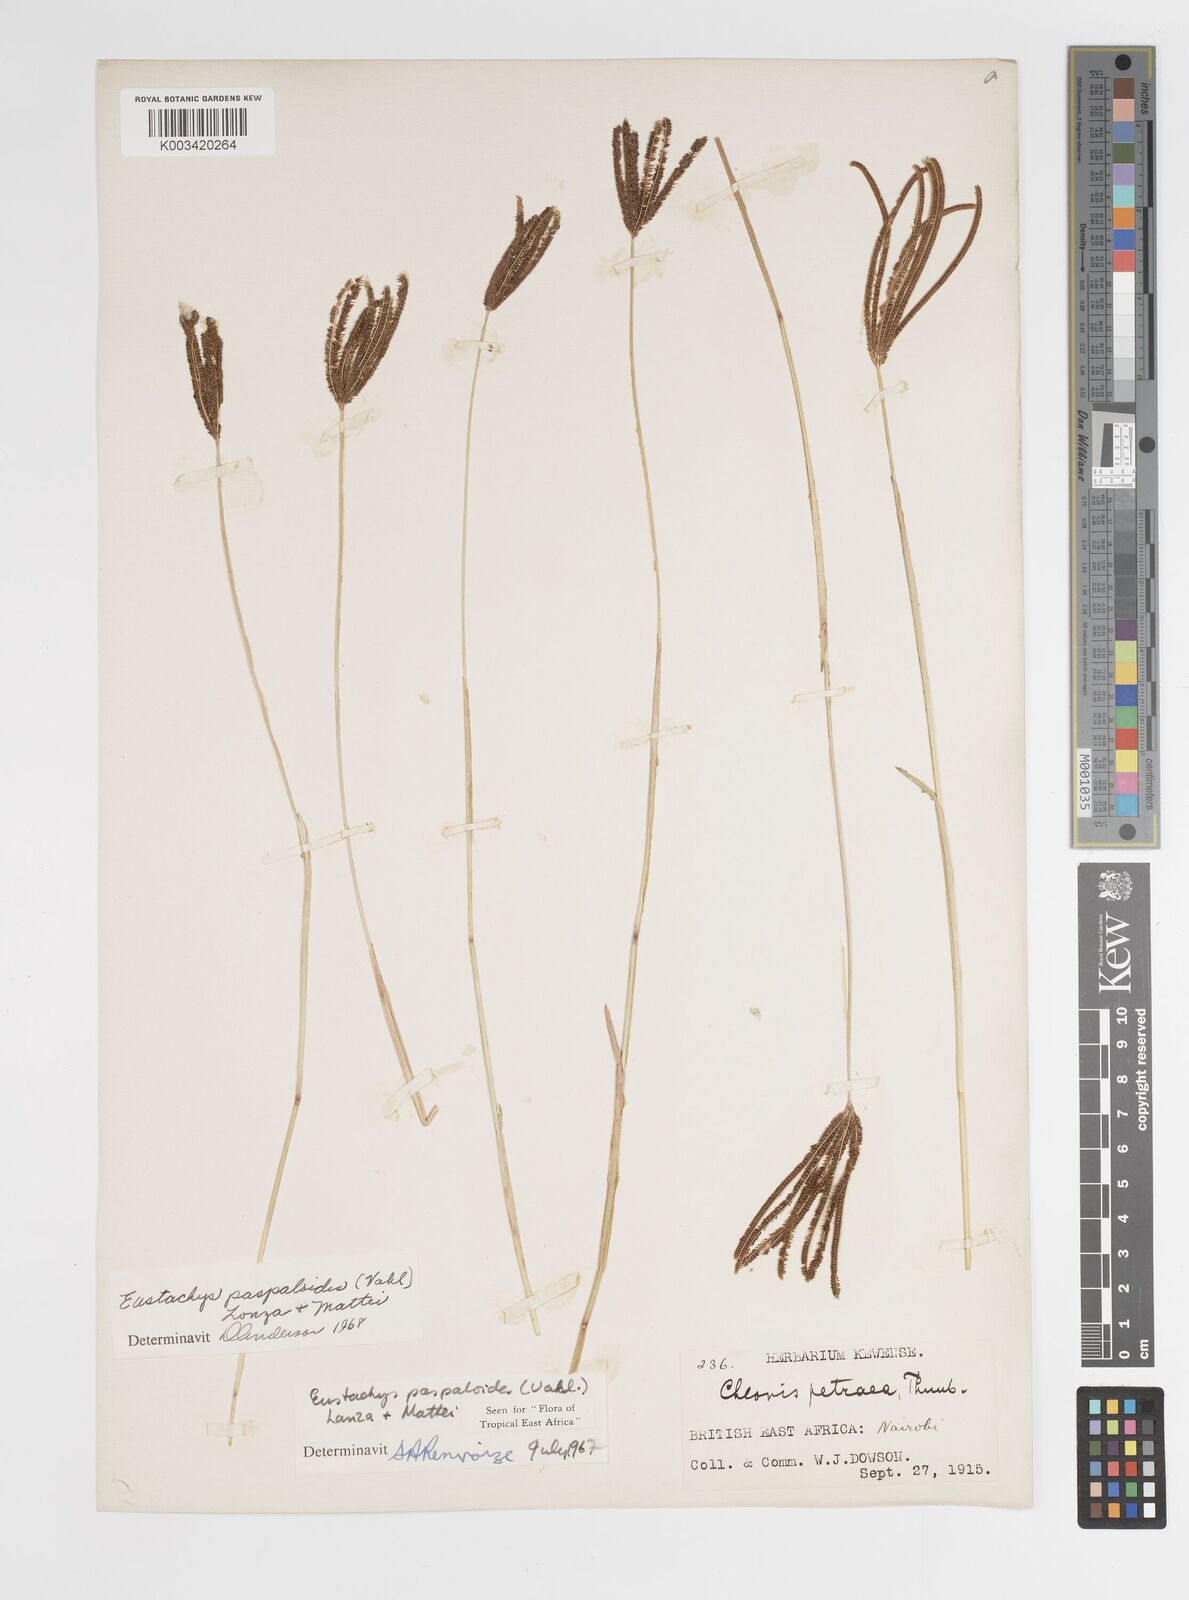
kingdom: Plantae
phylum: Tracheophyta
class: Liliopsida
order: Poales
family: Poaceae
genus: Eustachys
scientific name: Eustachys paspaloides
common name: Caribbean fingergrass
